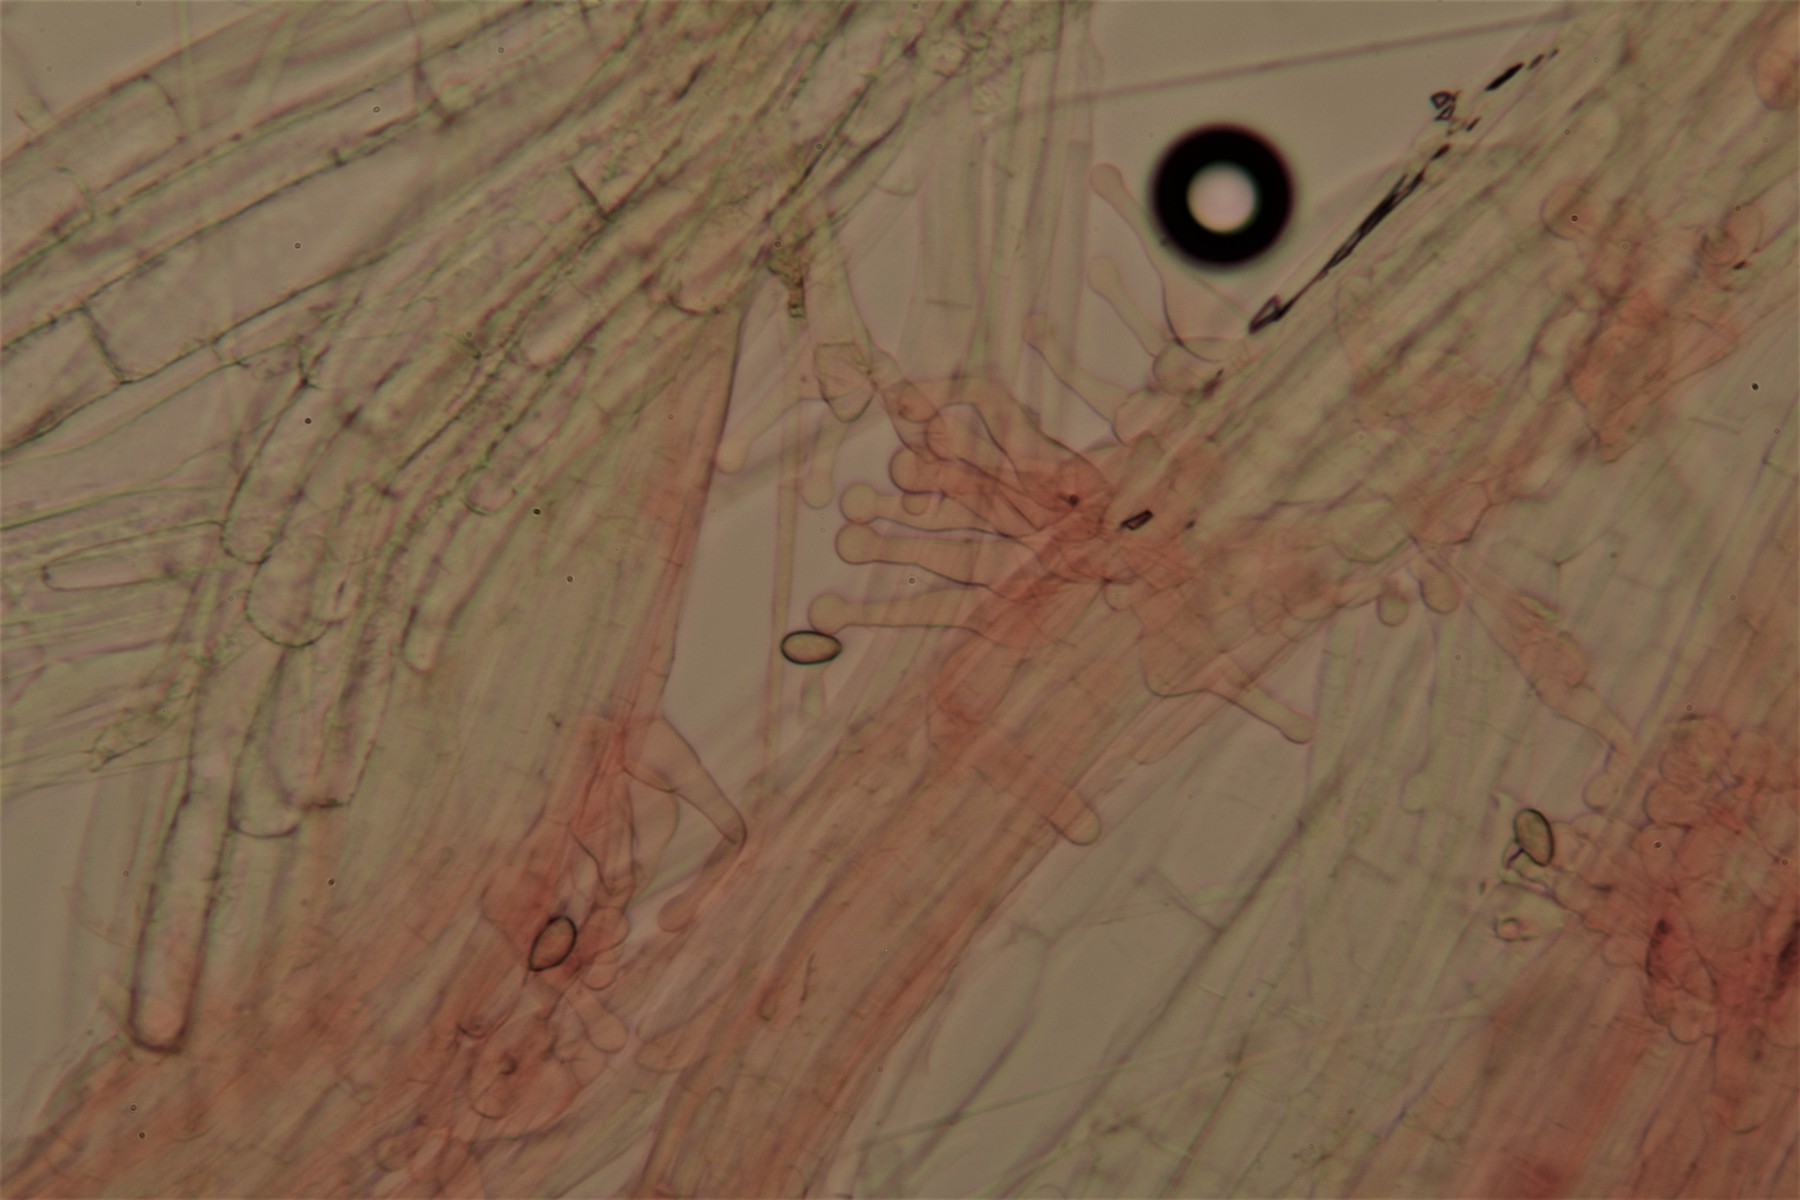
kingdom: Fungi
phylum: Basidiomycota
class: Agaricomycetes
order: Agaricales
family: Hymenogastraceae
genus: Galerina
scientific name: Galerina clavata
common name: kær-hjelmhat
